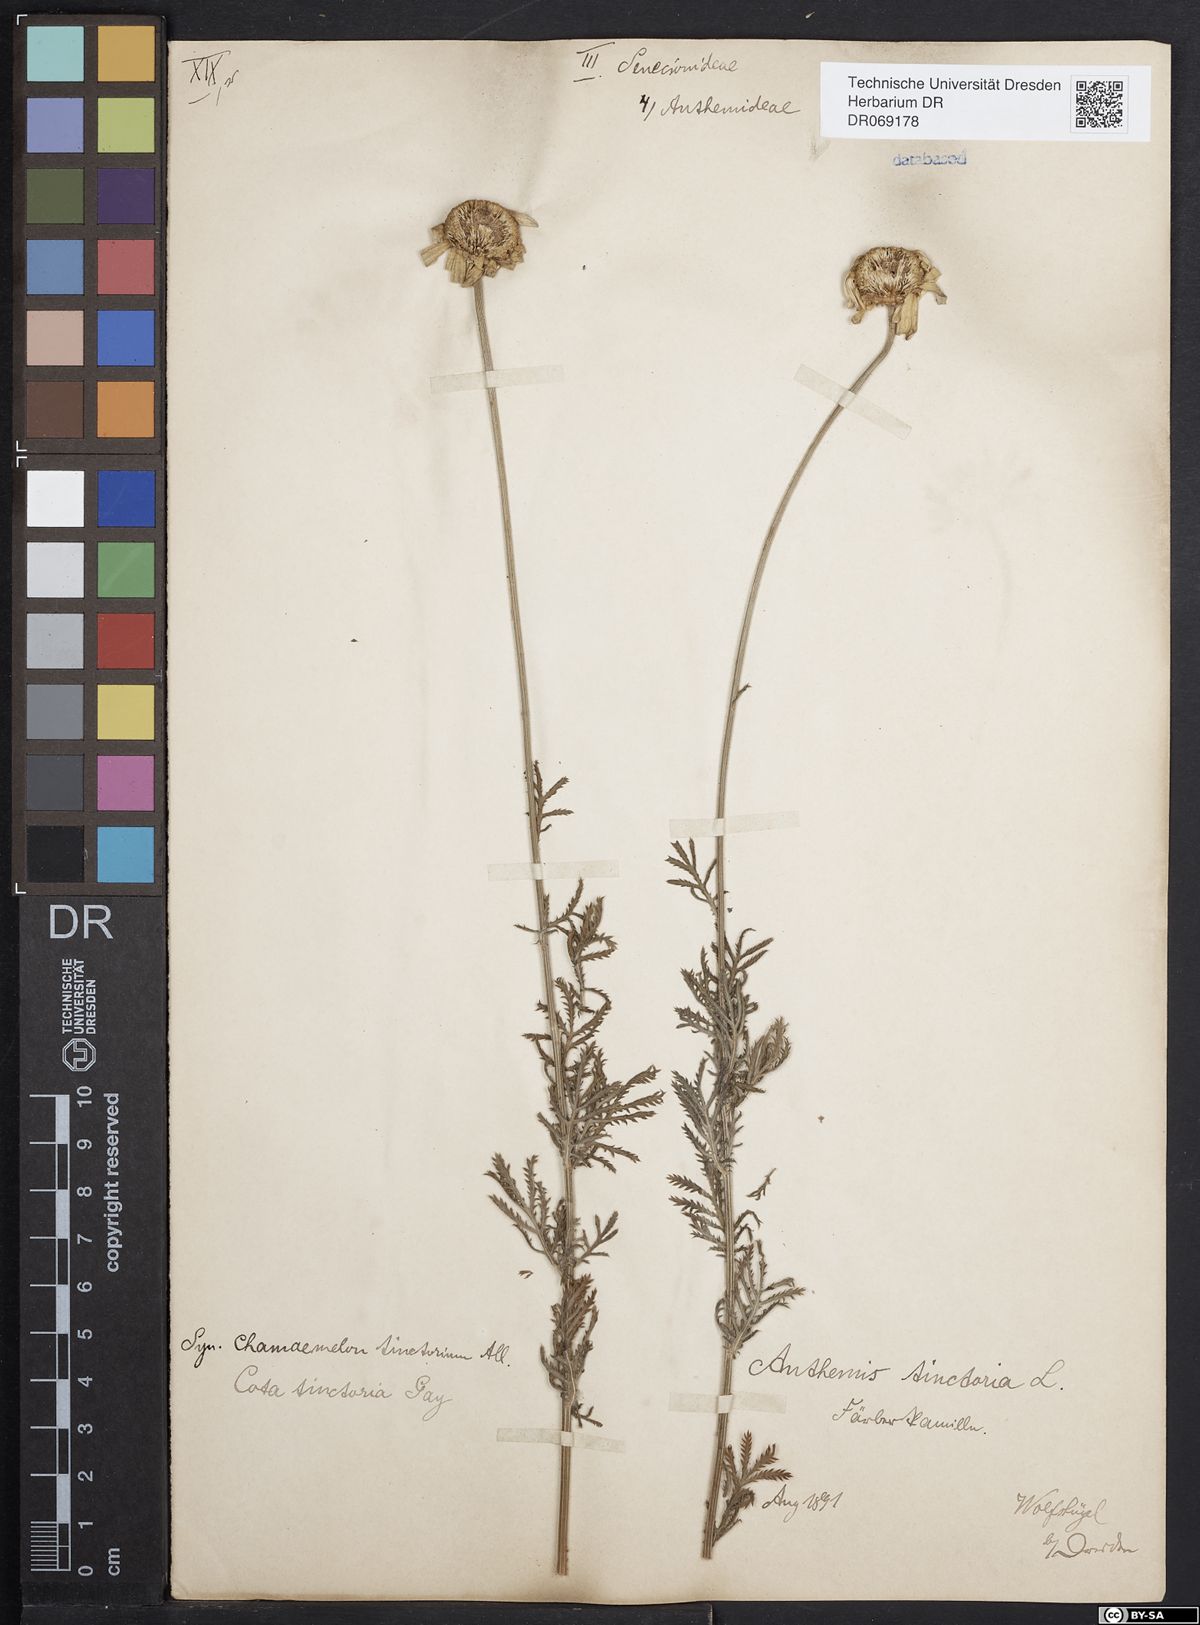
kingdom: Plantae
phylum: Tracheophyta
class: Magnoliopsida
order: Asterales
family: Asteraceae
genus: Cota
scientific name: Cota tinctoria
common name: Golden chamomile
